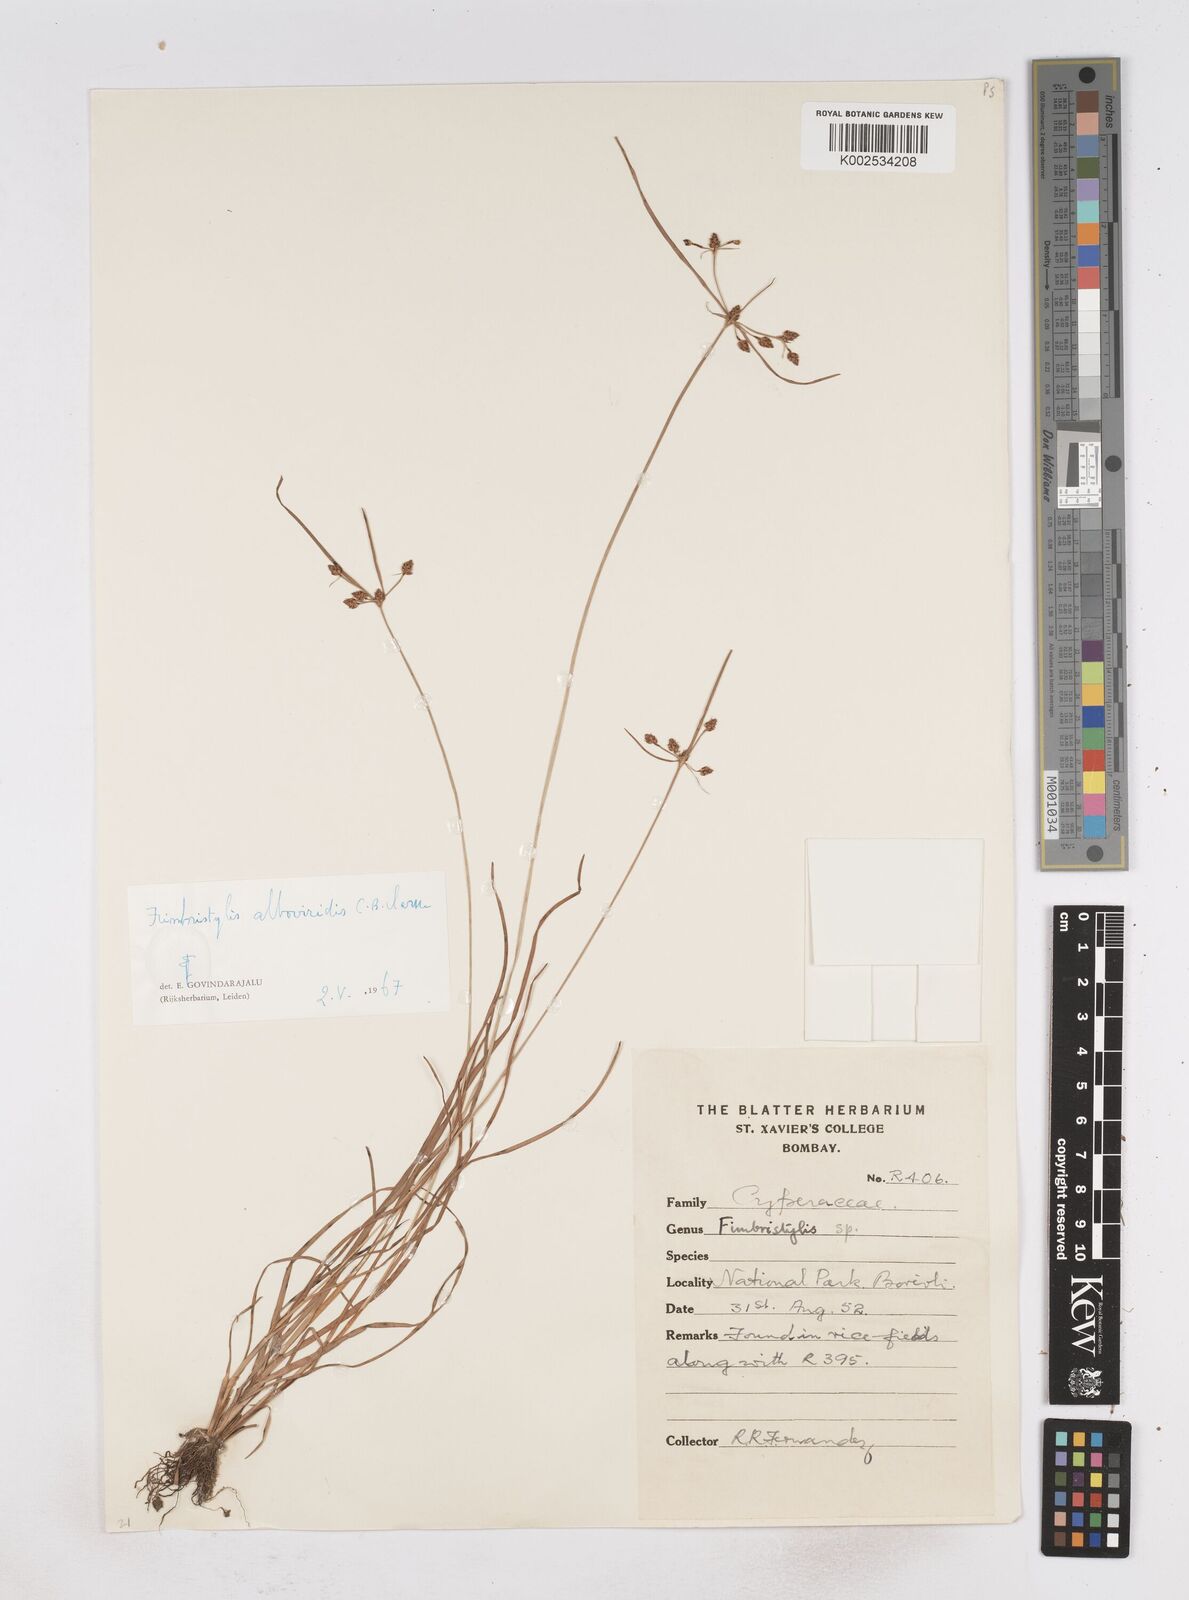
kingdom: Plantae
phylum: Tracheophyta
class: Liliopsida
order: Poales
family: Cyperaceae
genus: Fimbristylis
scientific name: Fimbristylis alboviridis
